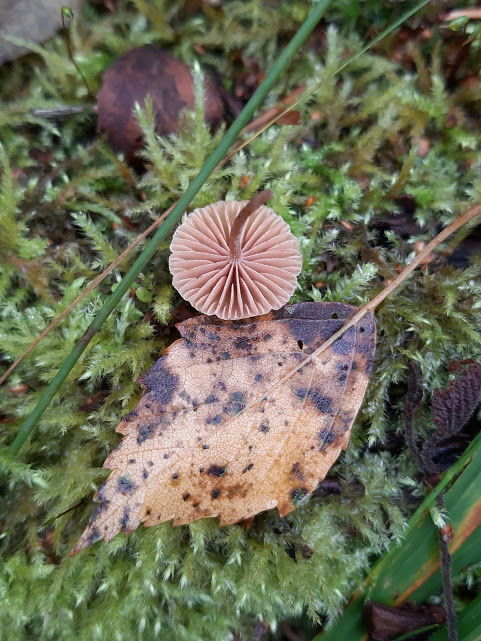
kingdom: Fungi
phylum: Basidiomycota
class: Agaricomycetes
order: Agaricales
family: Tubariaceae
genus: Tubaria
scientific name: Tubaria furfuracea
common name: kliddet fnughat
